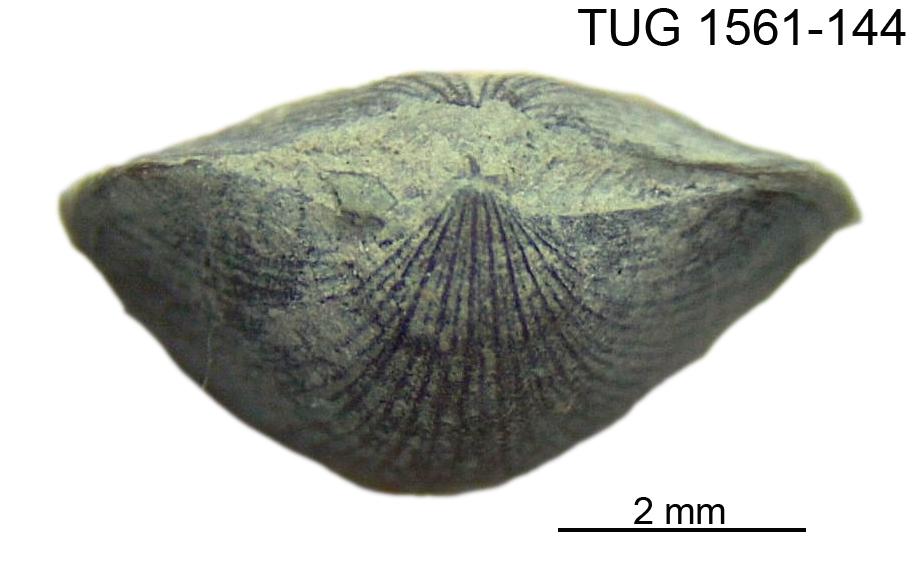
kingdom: Animalia
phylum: Brachiopoda
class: Rhynchonellata
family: Dalmanellidae
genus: Isorthis
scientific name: Isorthis
